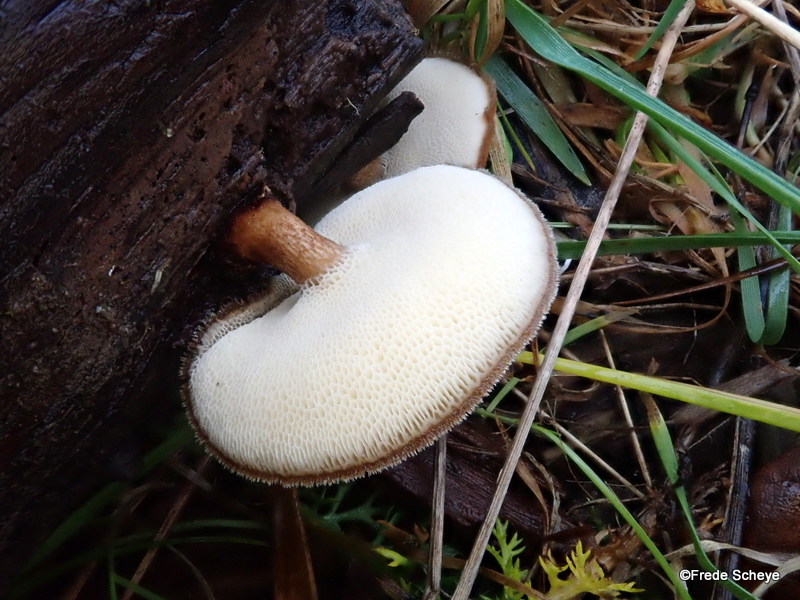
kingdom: Fungi
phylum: Basidiomycota
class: Agaricomycetes
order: Polyporales
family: Polyporaceae
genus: Lentinus
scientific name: Lentinus brumalis
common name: vinter-stilkporesvamp
